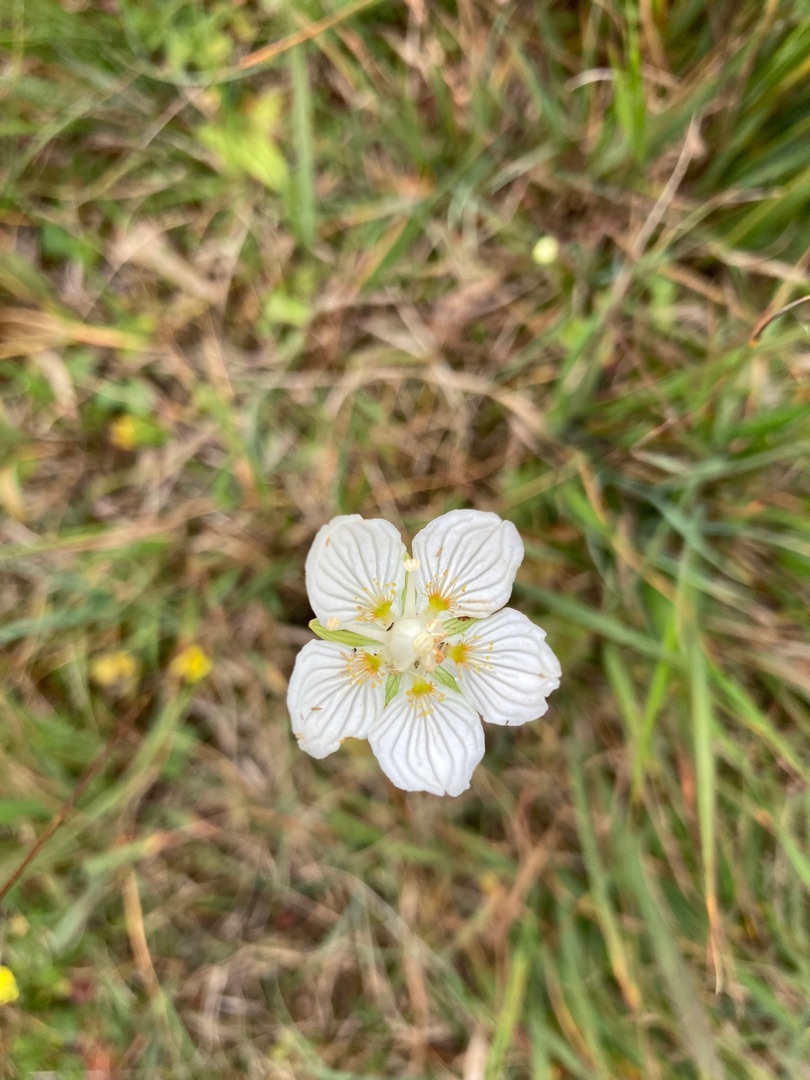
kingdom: Plantae
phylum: Tracheophyta
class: Magnoliopsida
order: Celastrales
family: Parnassiaceae
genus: Parnassia
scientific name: Parnassia palustris
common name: Leverurt
